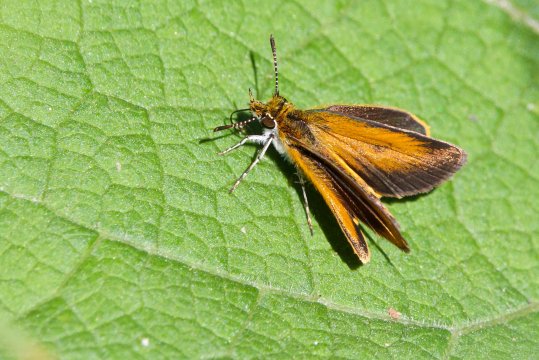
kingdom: Animalia
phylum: Arthropoda
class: Insecta
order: Lepidoptera
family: Hesperiidae
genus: Ancyloxypha
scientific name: Ancyloxypha numitor
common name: Least Skipper
